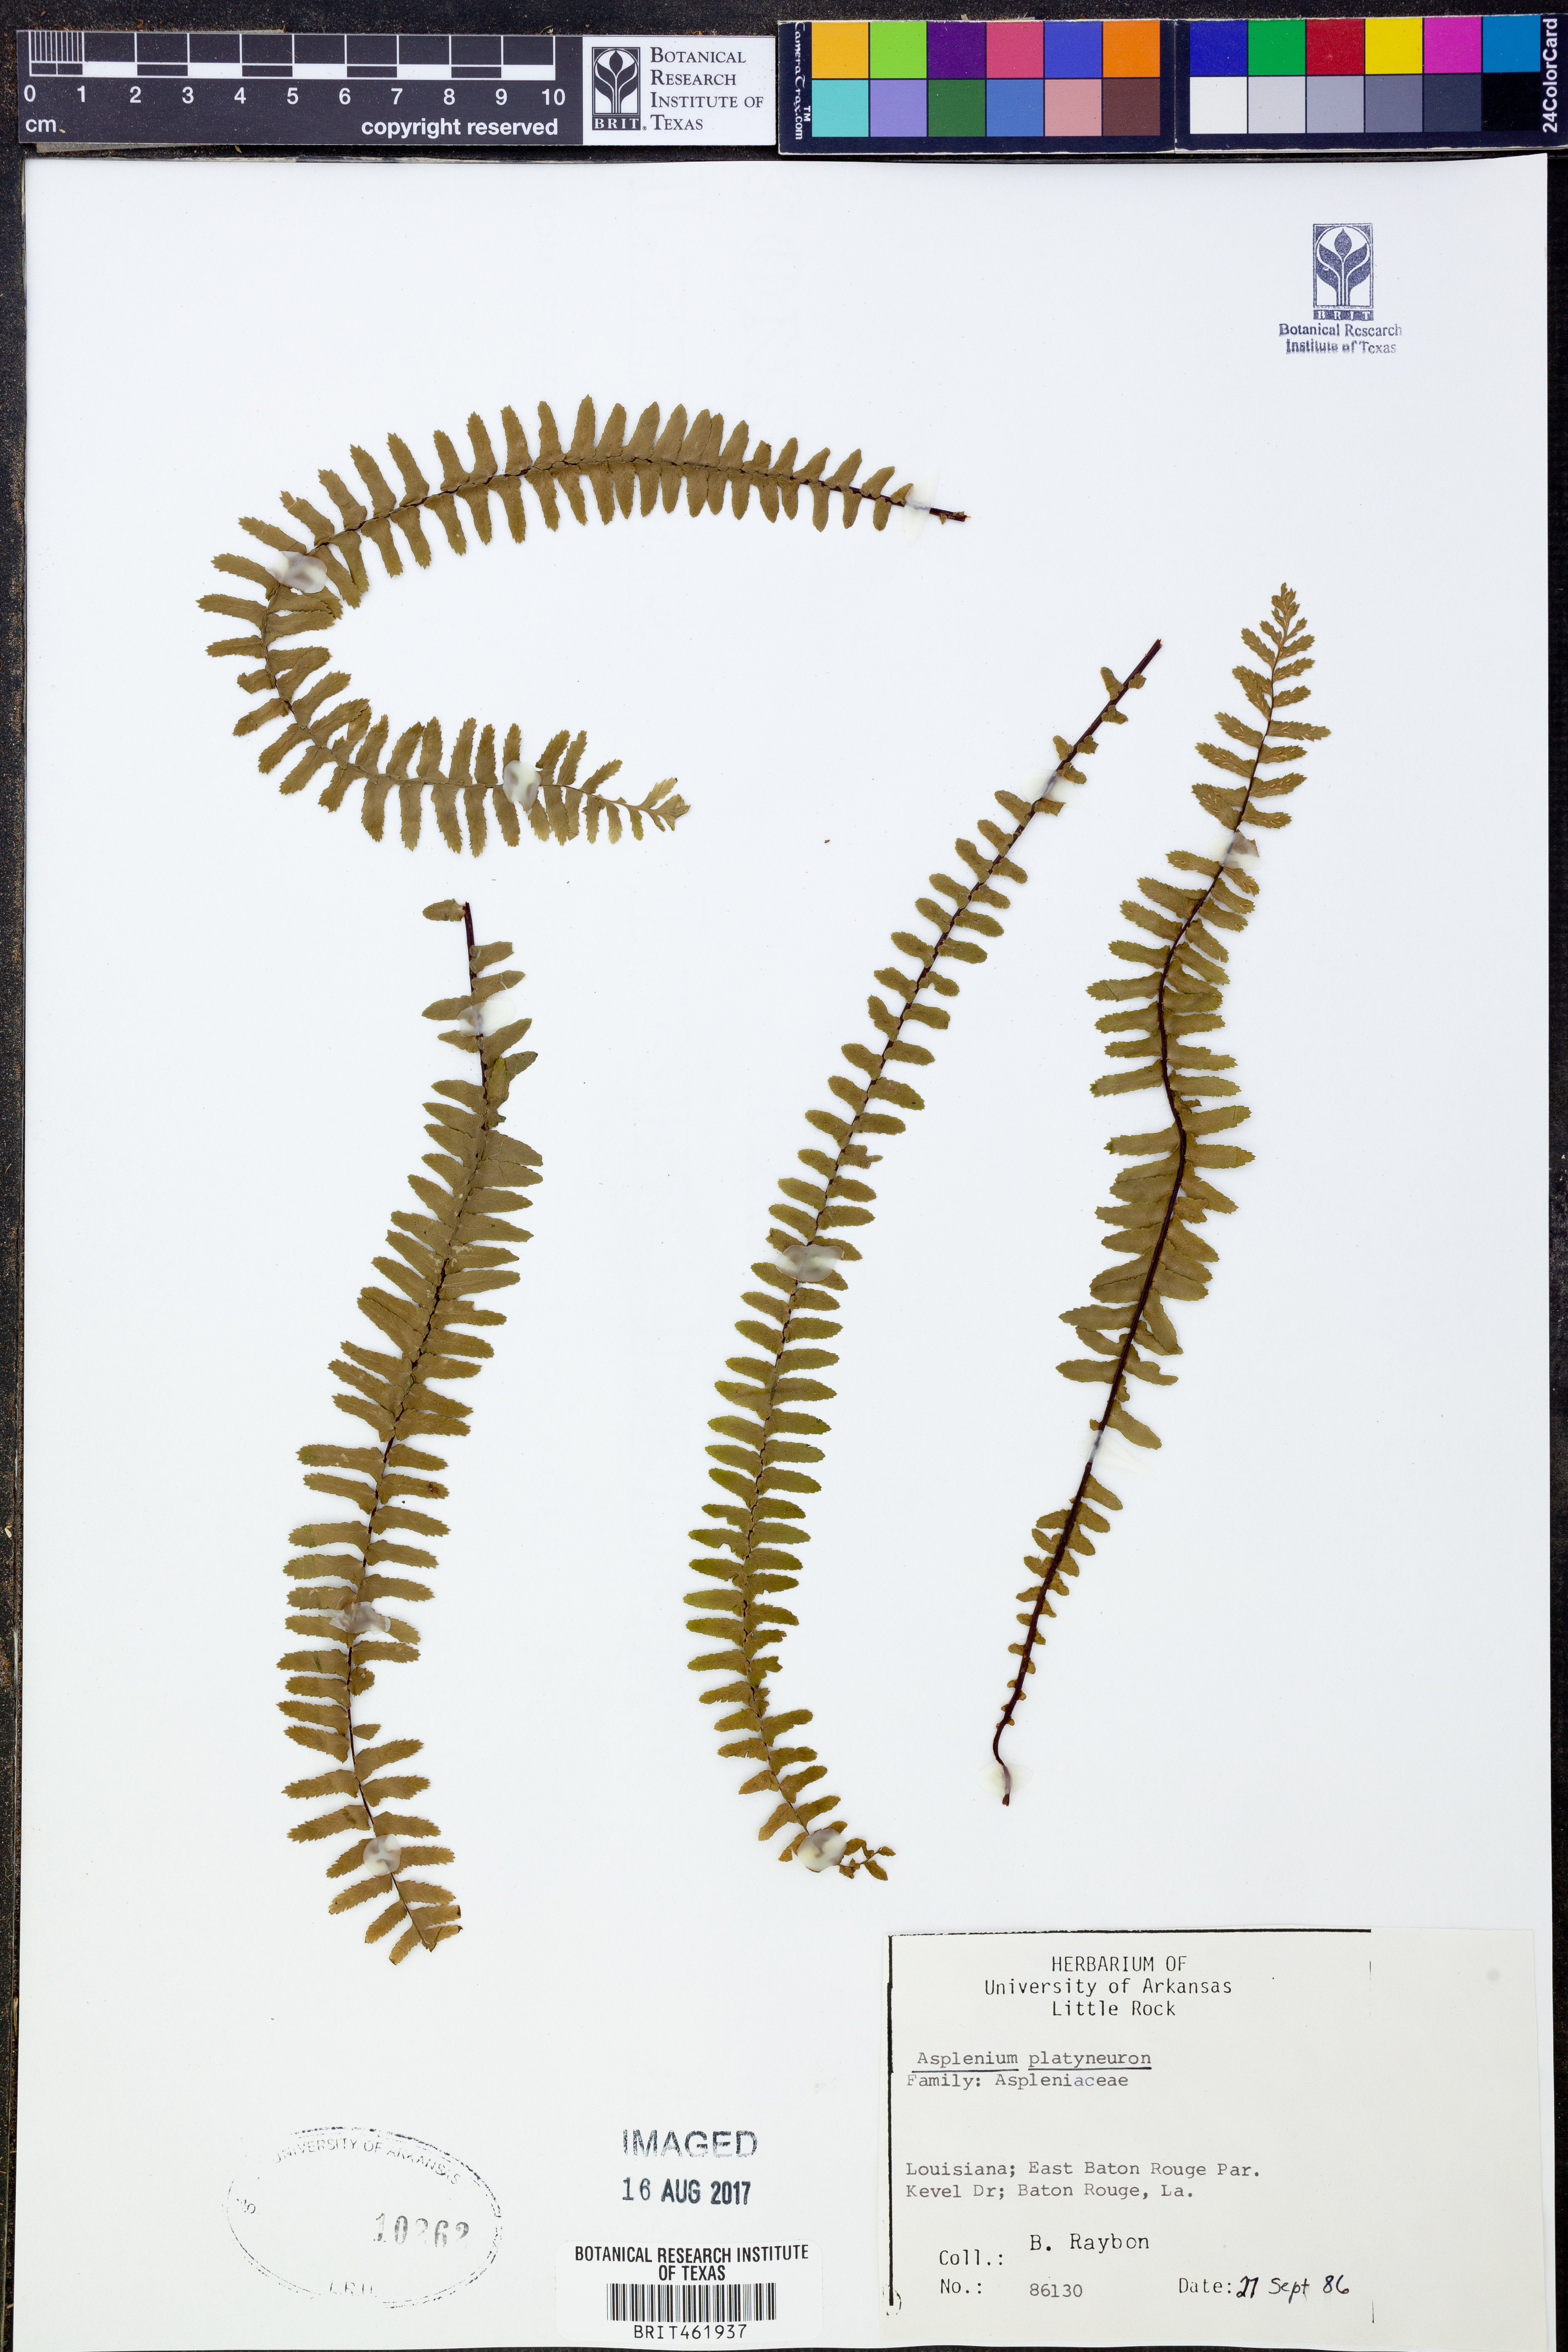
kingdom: Plantae
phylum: Tracheophyta
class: Polypodiopsida
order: Polypodiales
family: Aspleniaceae
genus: Asplenium
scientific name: Asplenium platyneuron
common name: Ebony spleenwort
